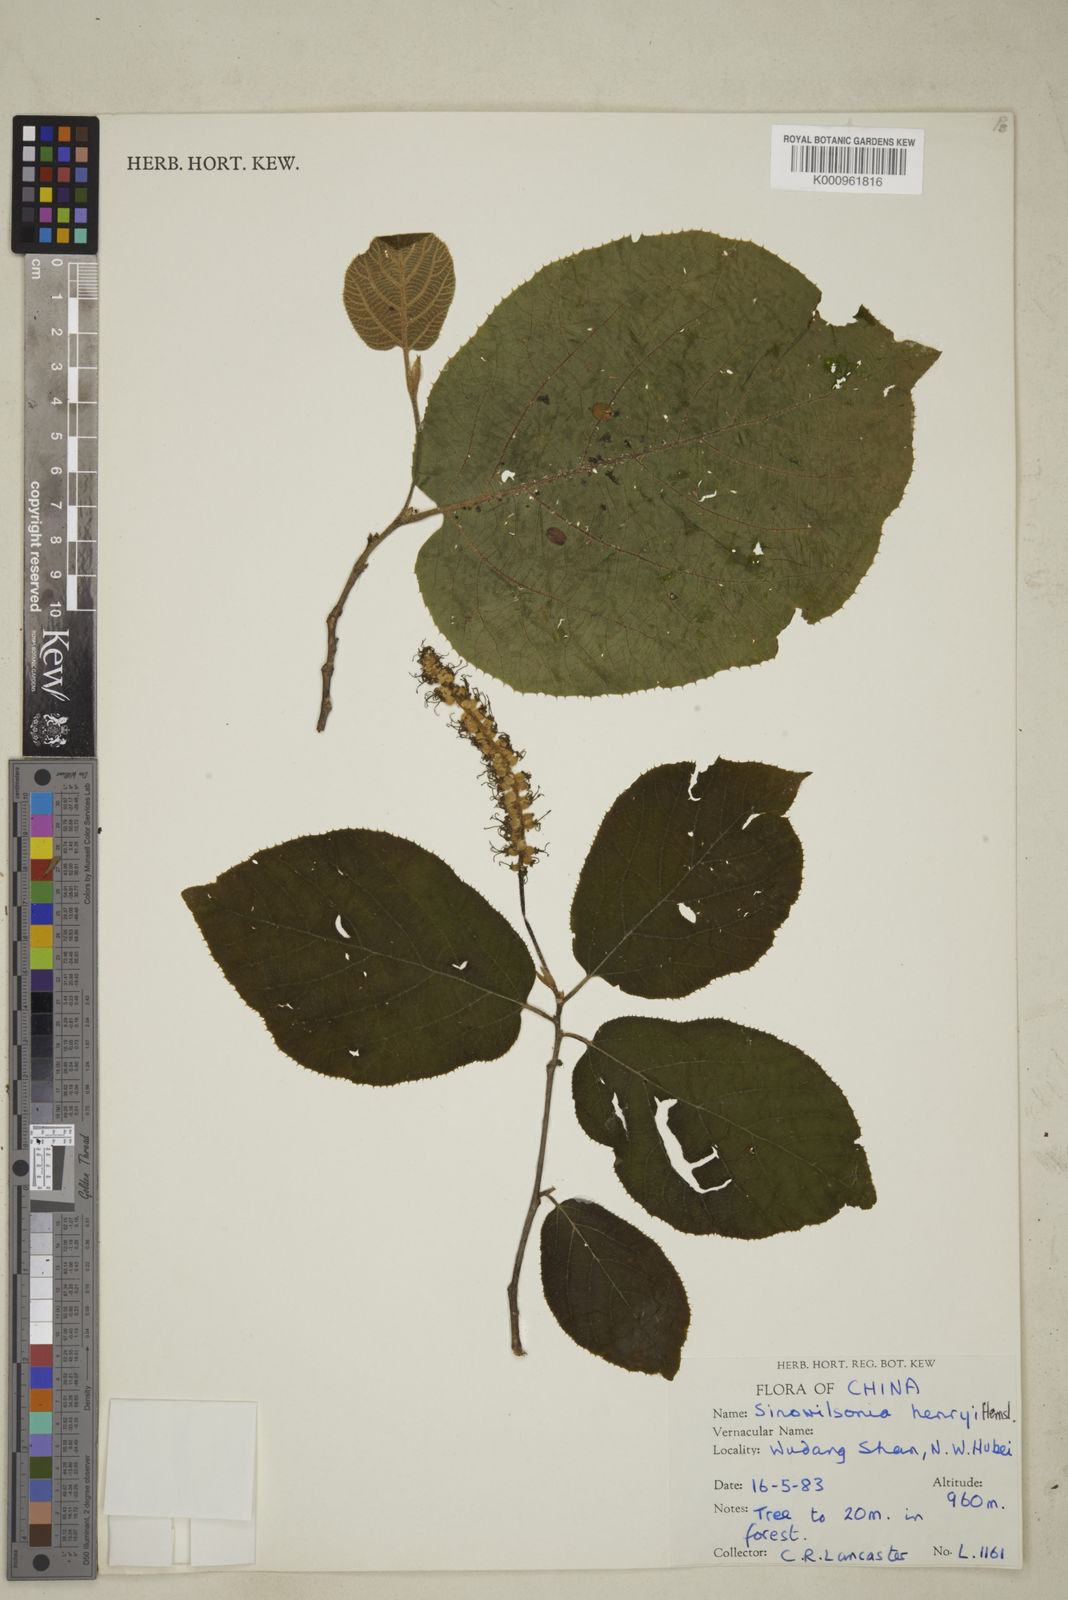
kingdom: Plantae
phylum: Tracheophyta
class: Magnoliopsida
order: Saxifragales
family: Hamamelidaceae
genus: Sinowilsonia
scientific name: Sinowilsonia henryi
